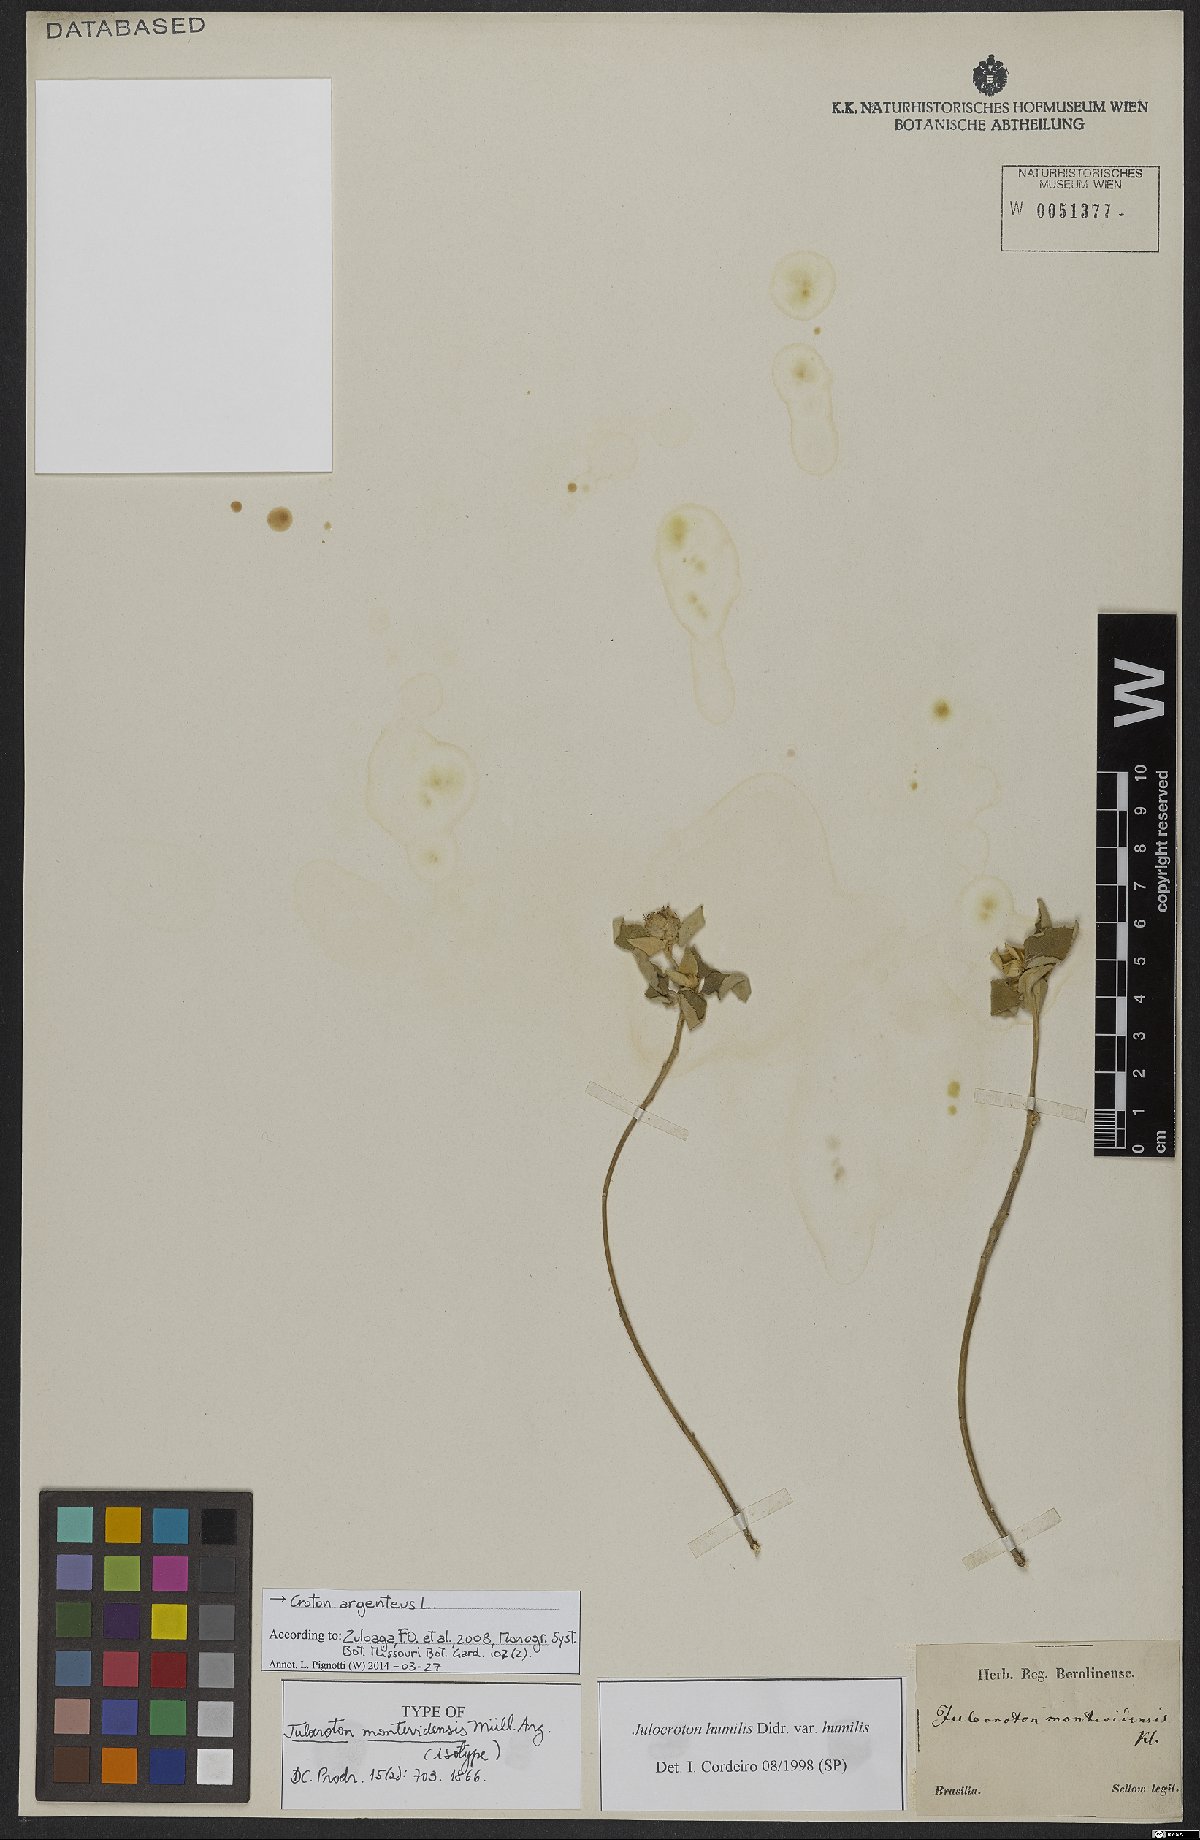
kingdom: Plantae
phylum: Tracheophyta
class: Magnoliopsida
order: Malpighiales
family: Euphorbiaceae
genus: Croton
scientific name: Croton argenteus
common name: Silver july croton
